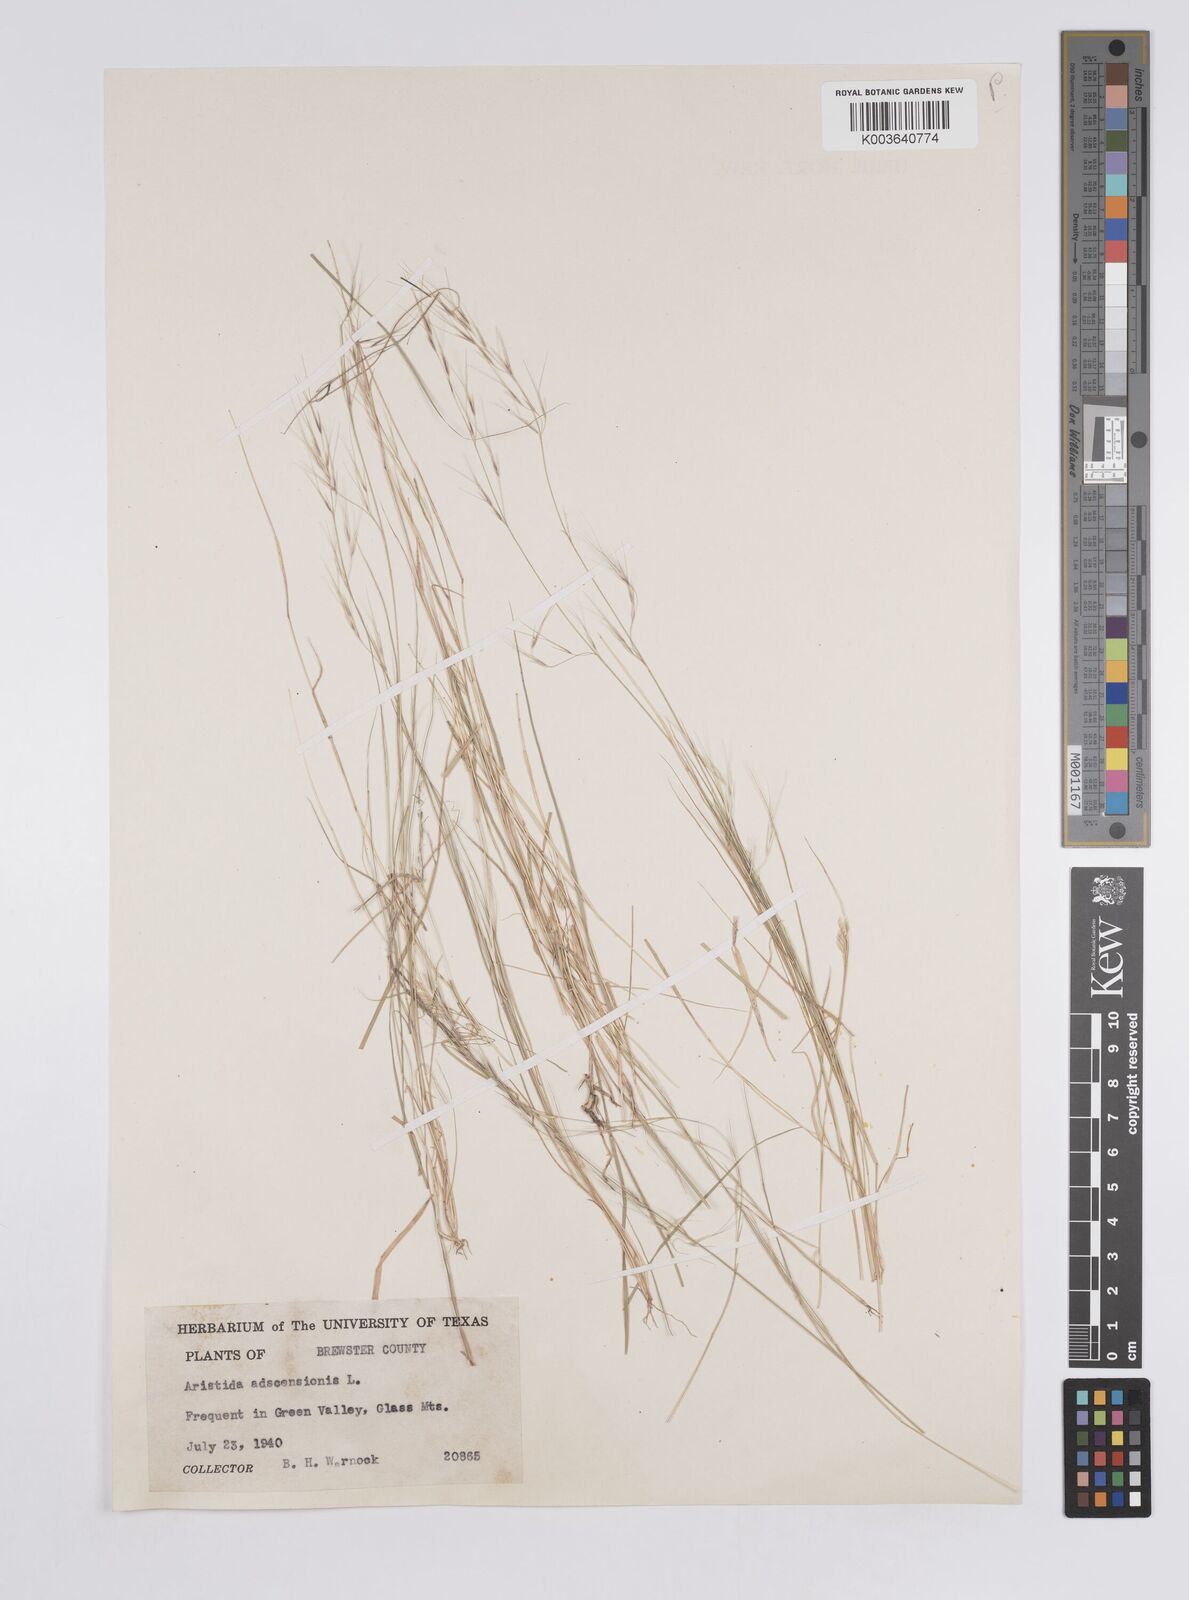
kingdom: Plantae
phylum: Tracheophyta
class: Liliopsida
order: Poales
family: Poaceae
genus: Aristida
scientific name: Aristida adscensionis
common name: Sixweeks threeawn
